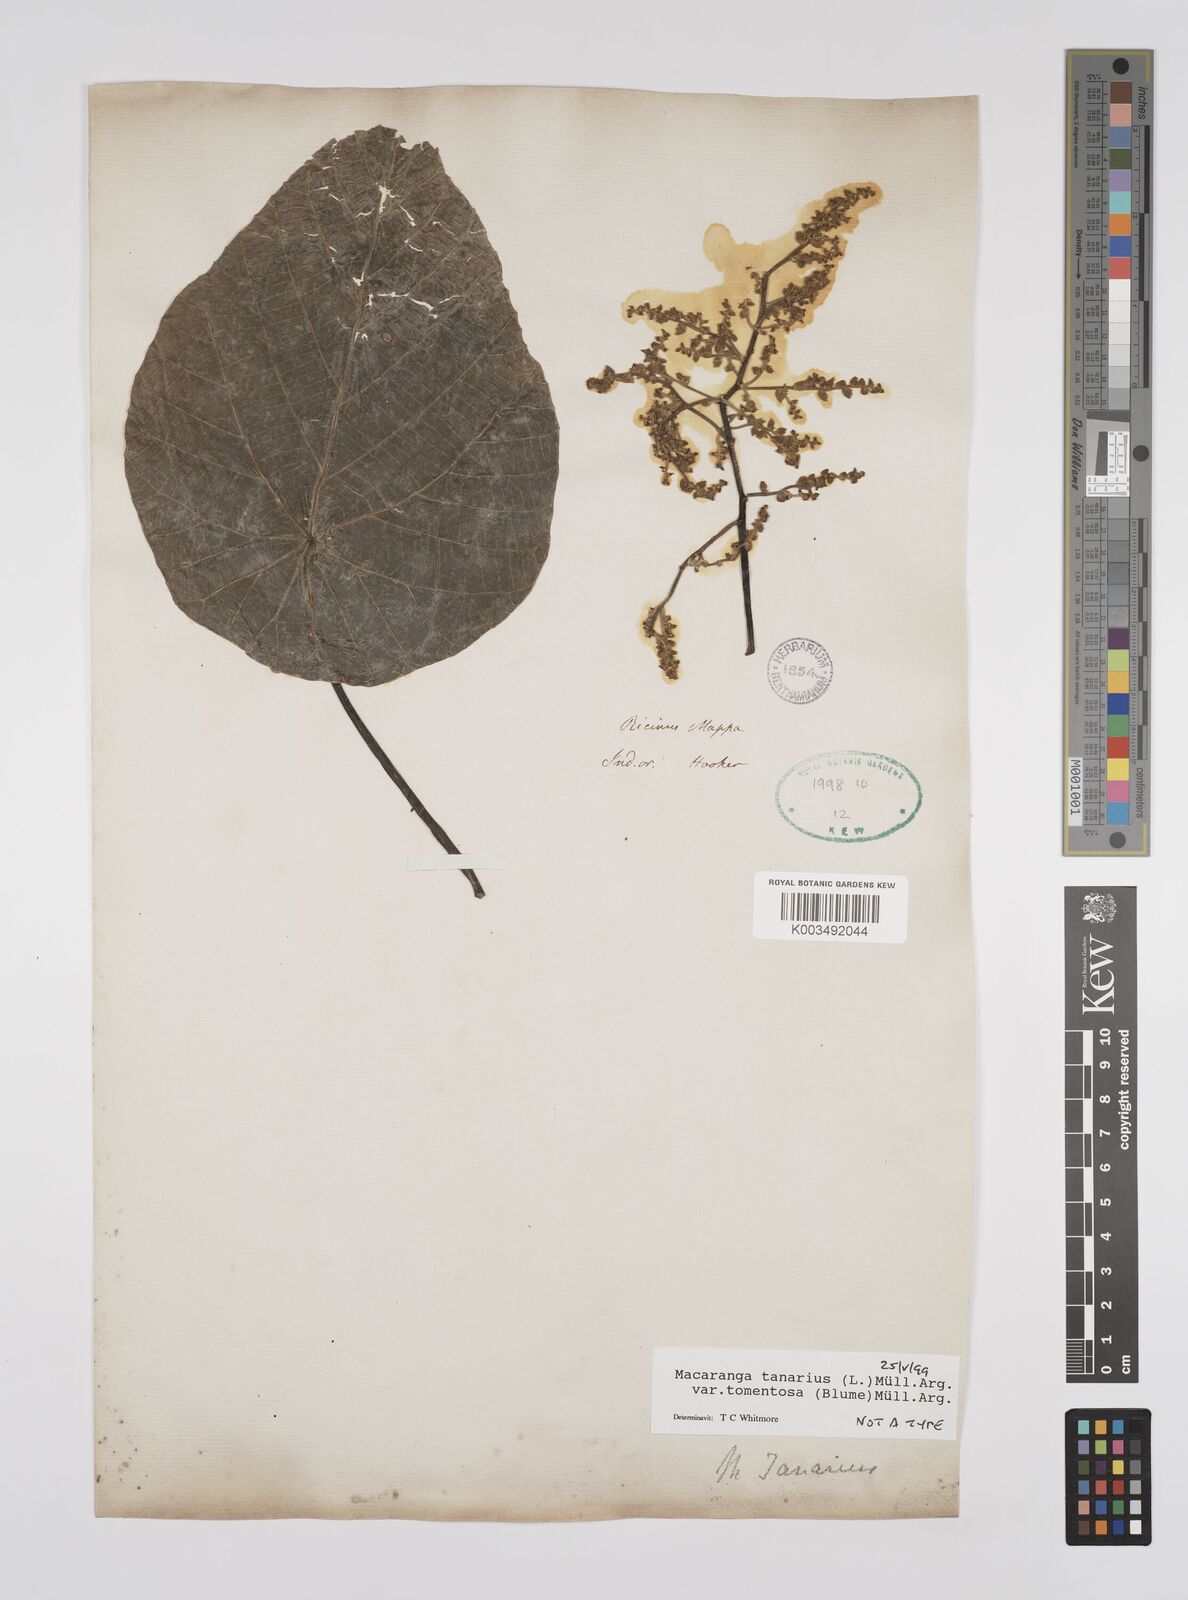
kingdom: Plantae
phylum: Tracheophyta
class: Magnoliopsida
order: Malpighiales
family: Euphorbiaceae
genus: Macaranga
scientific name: Macaranga tanarius
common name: Parasol leaf tree
